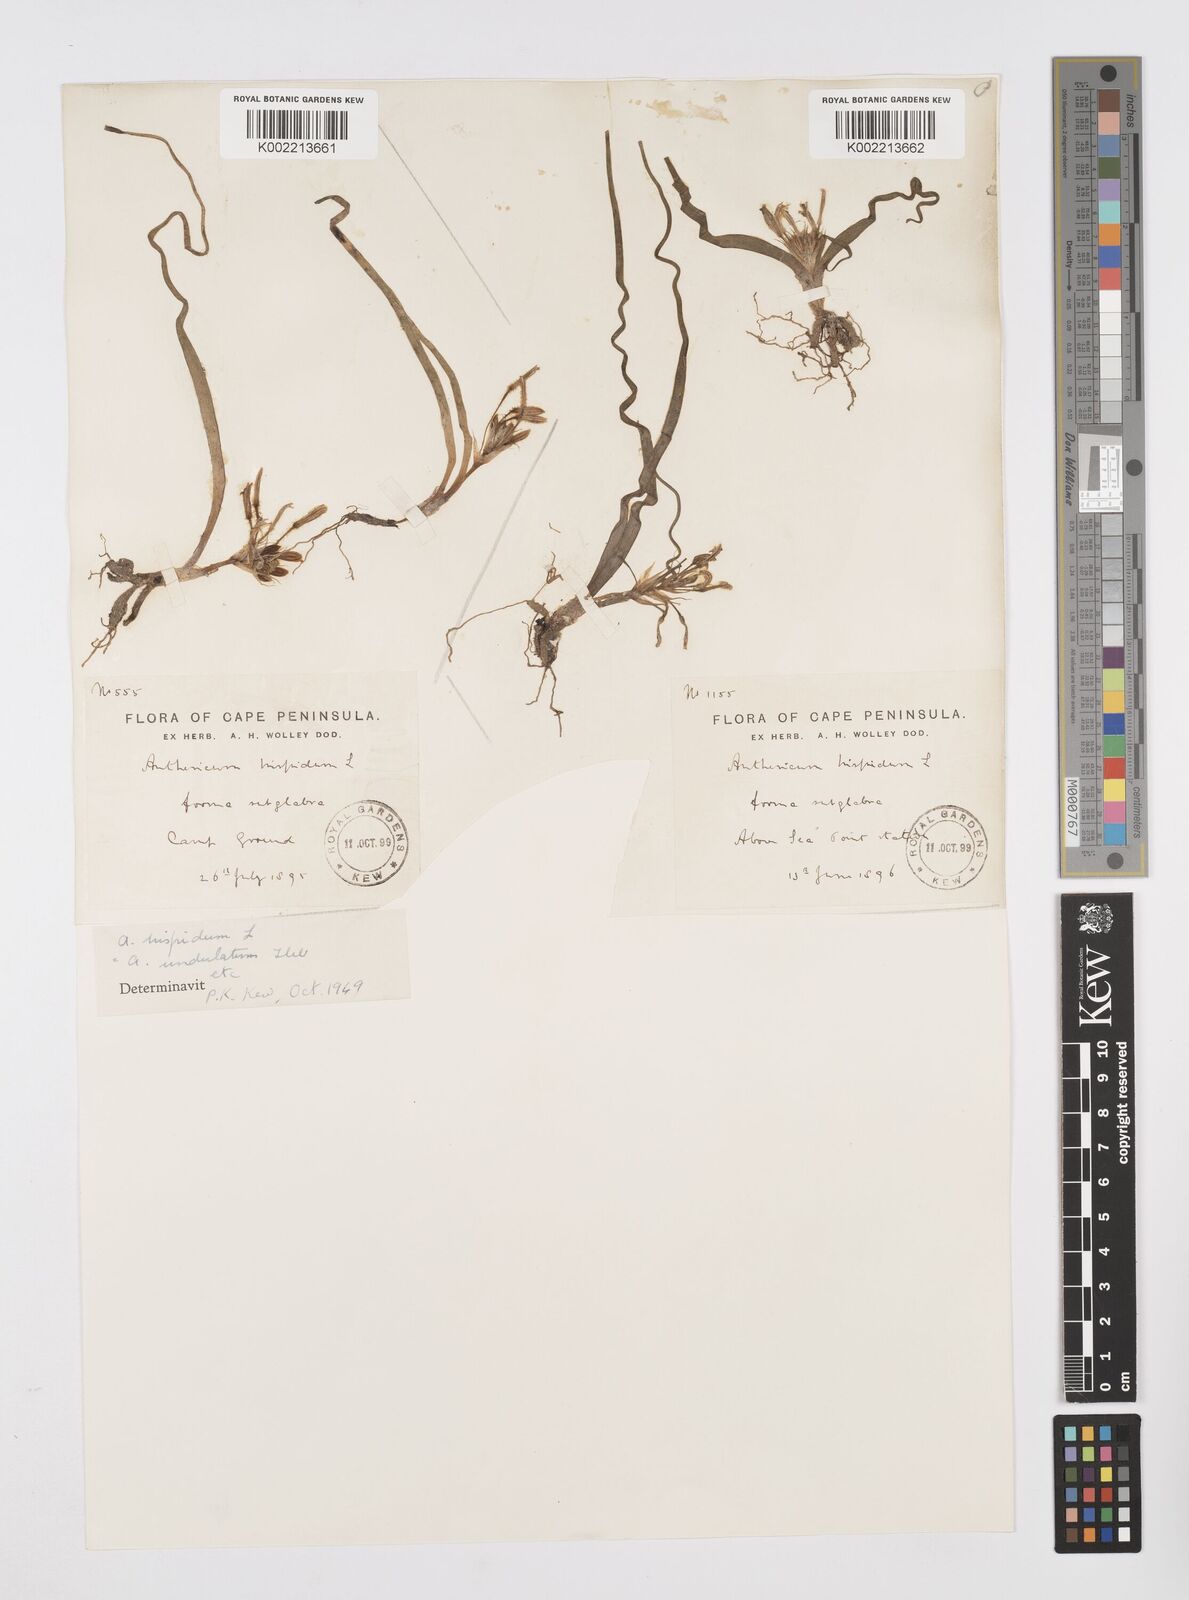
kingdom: Plantae
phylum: Tracheophyta
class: Liliopsida
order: Asparagales
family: Asphodelaceae
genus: Trachyandra
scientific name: Trachyandra hispida
